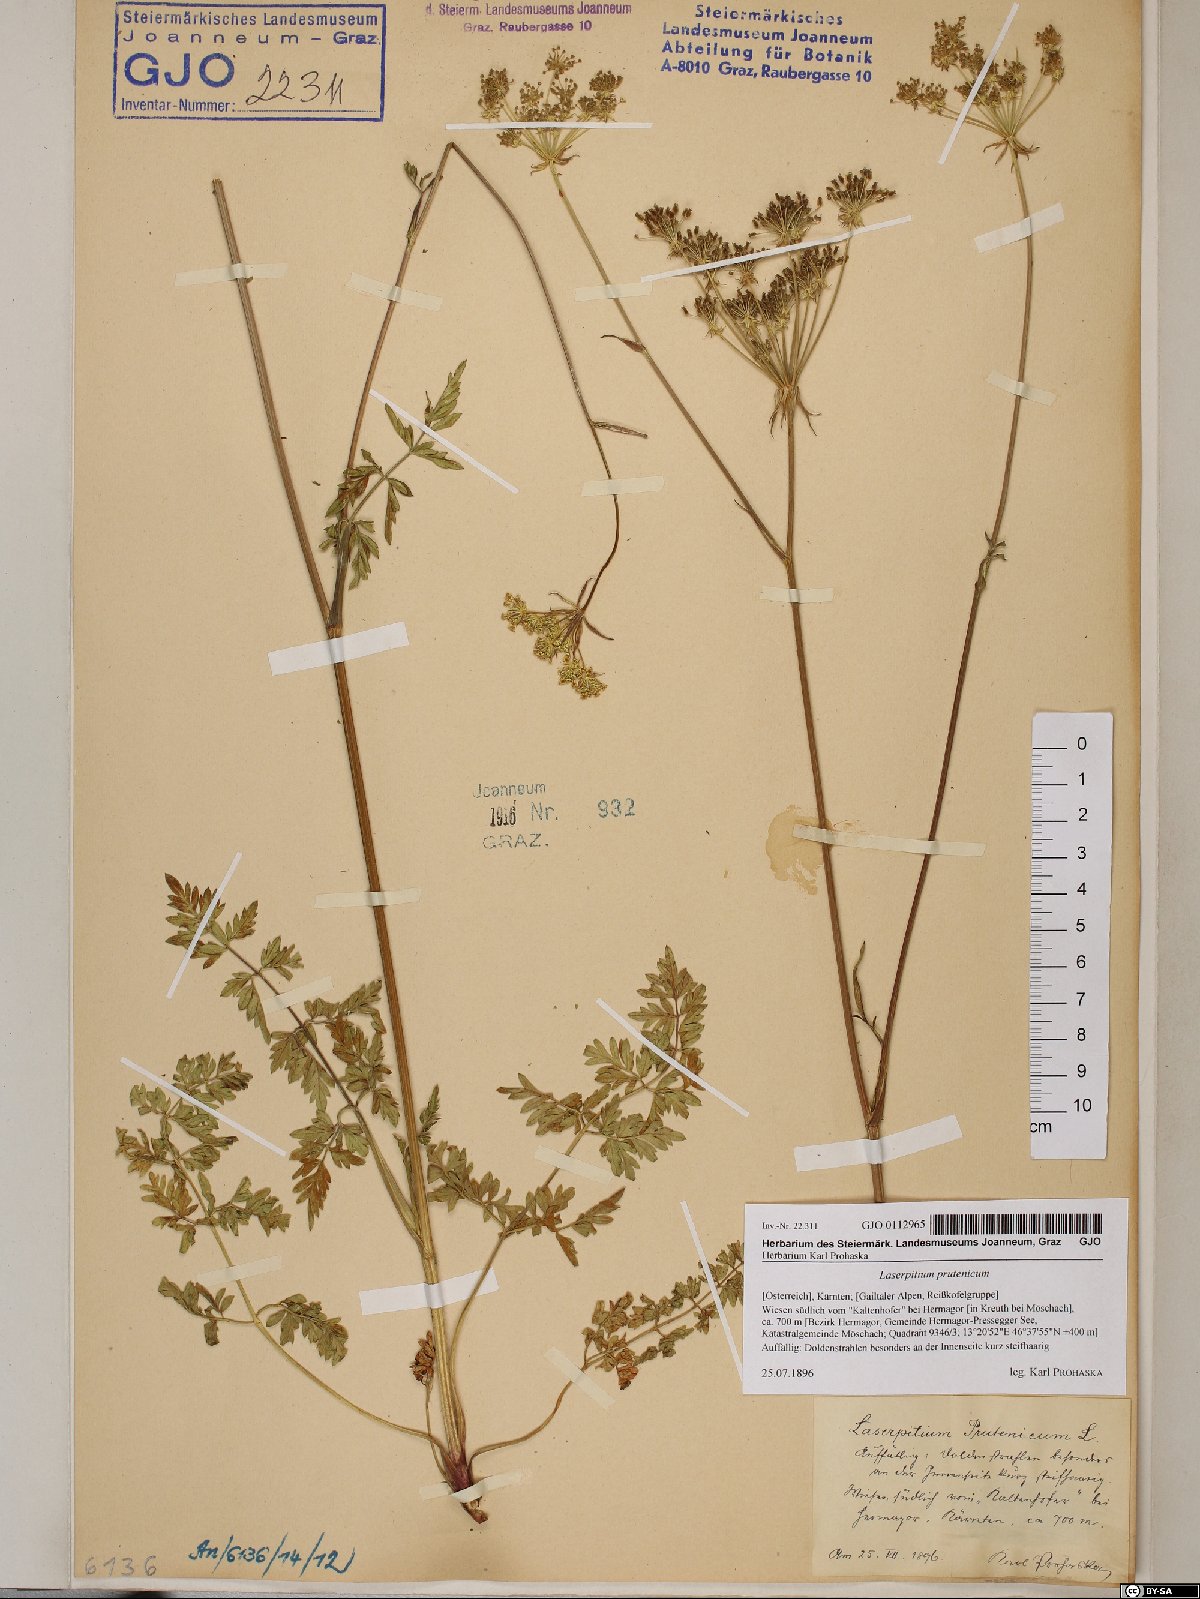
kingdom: Plantae
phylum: Tracheophyta
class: Magnoliopsida
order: Apiales
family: Apiaceae
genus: Silphiodaucus
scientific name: Silphiodaucus prutenicus
